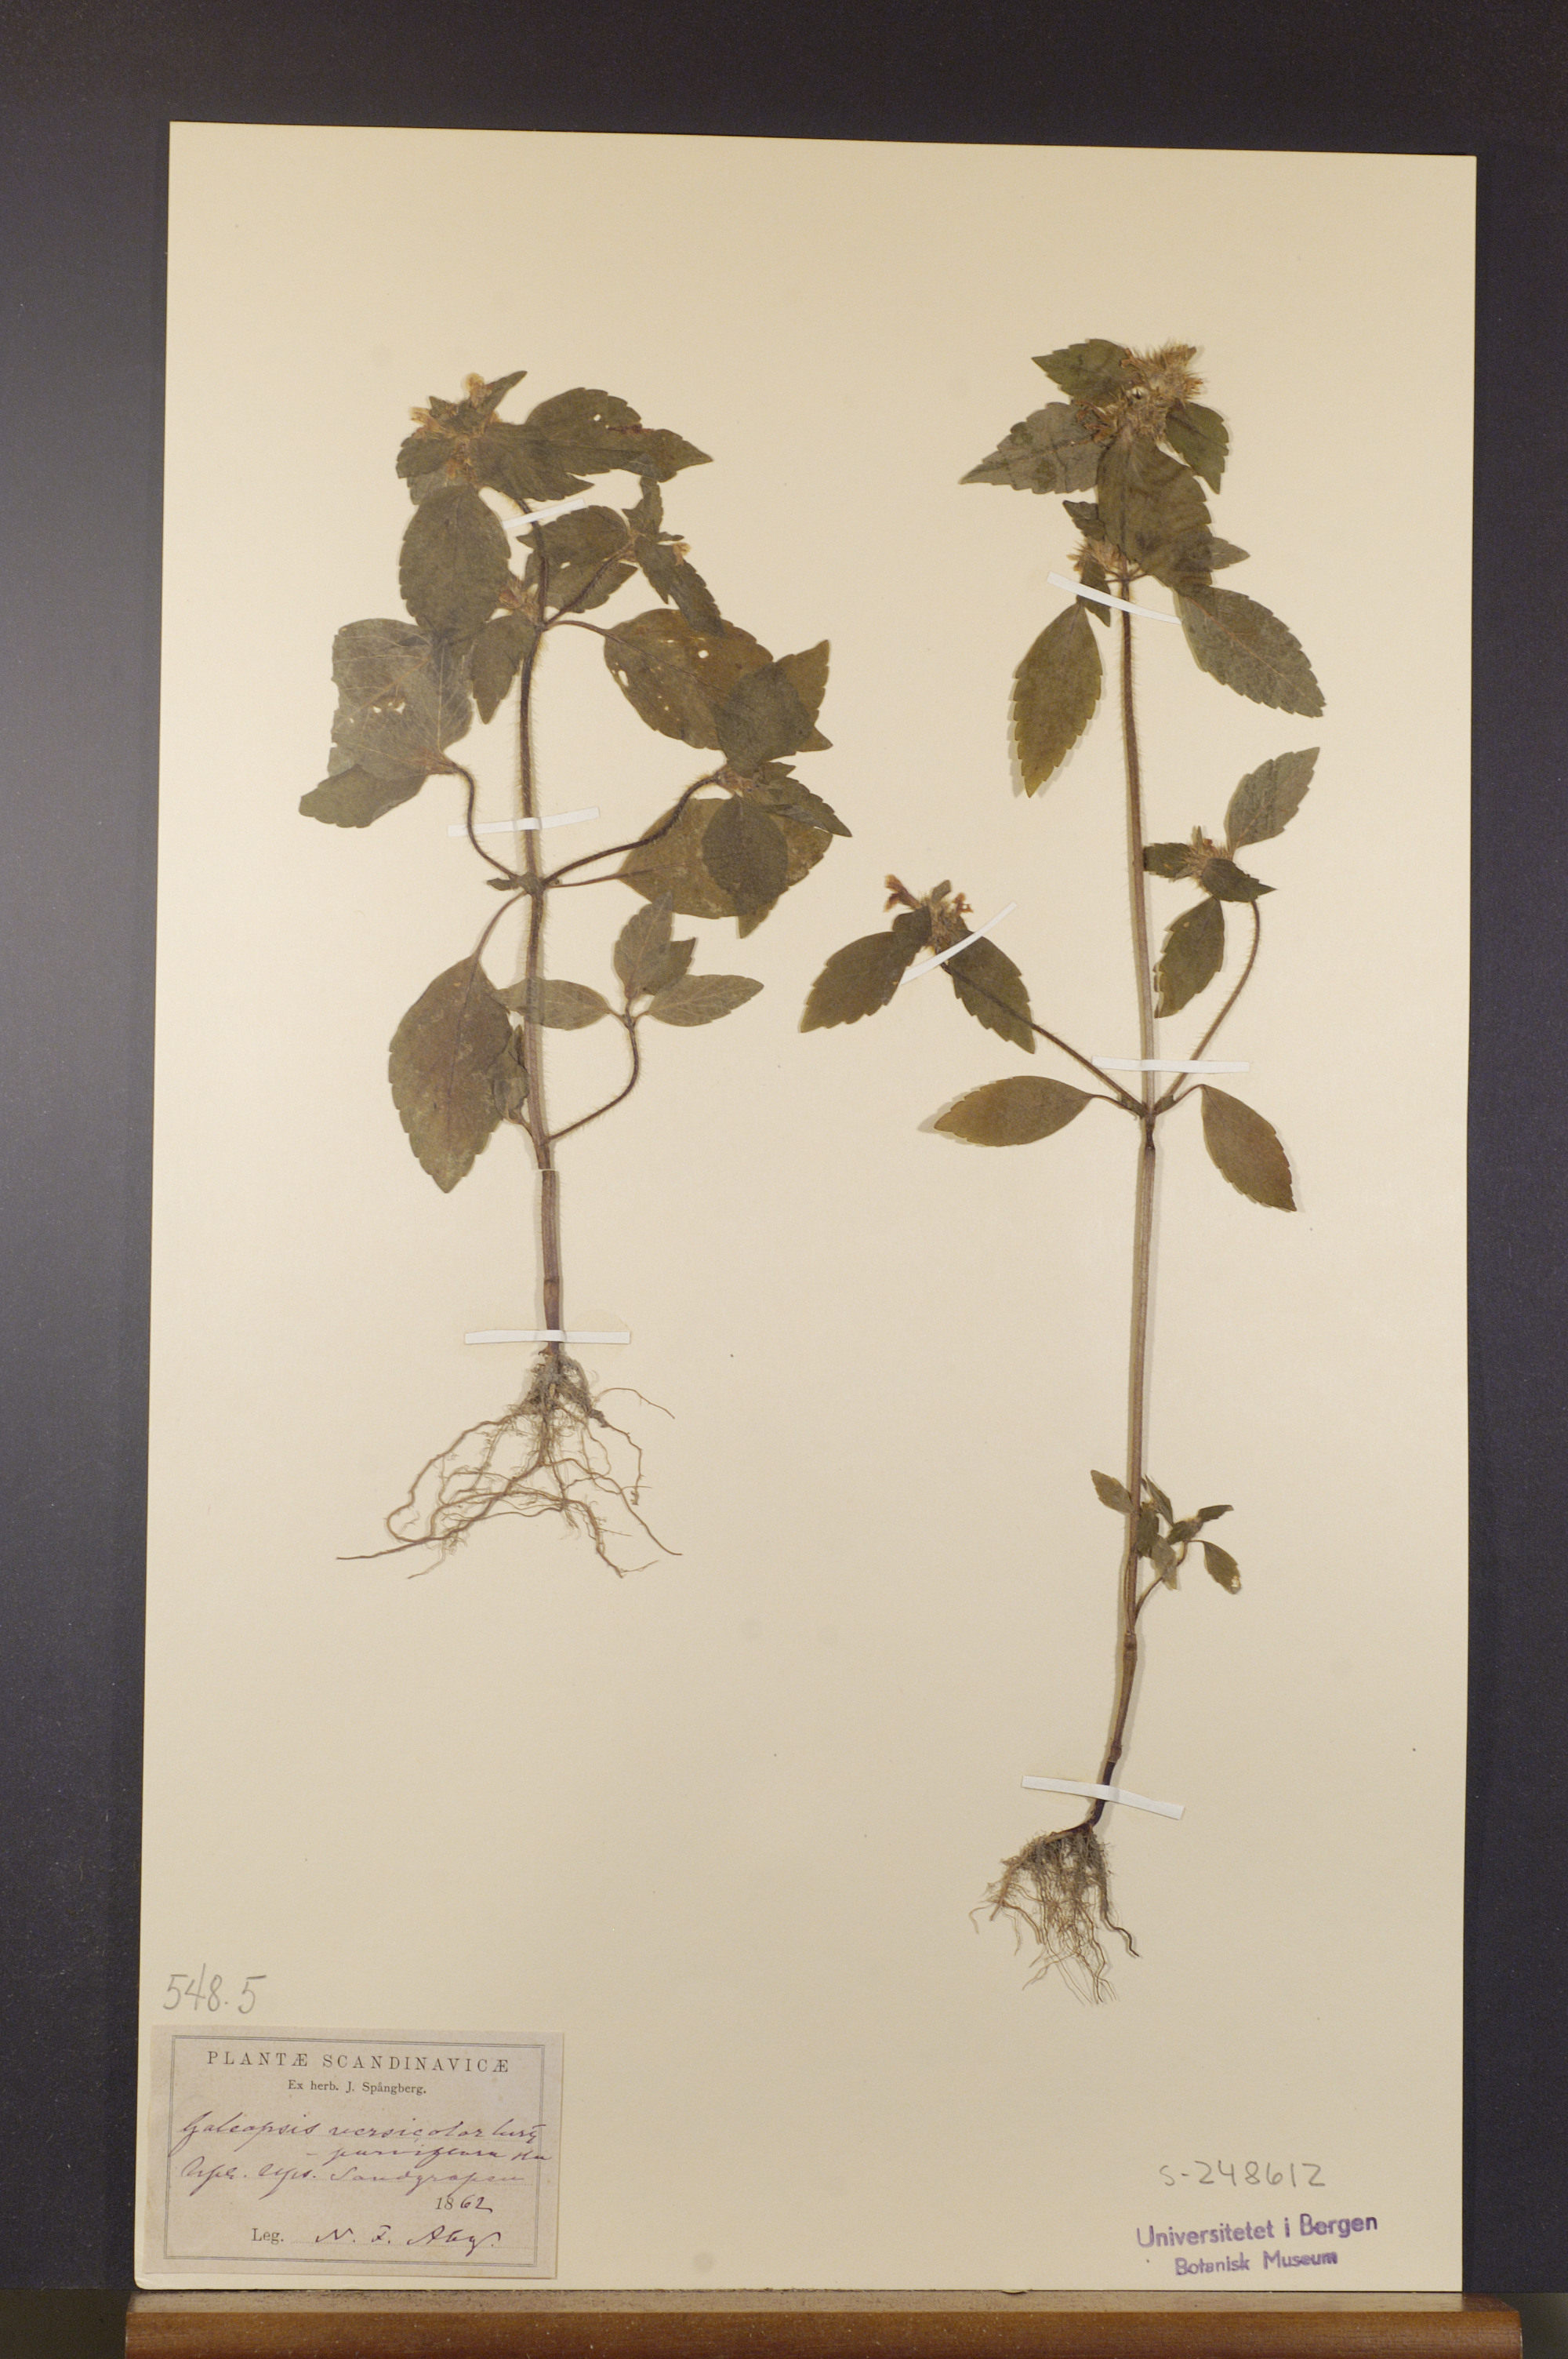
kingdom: Plantae
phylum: Tracheophyta
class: Magnoliopsida
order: Lamiales
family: Lamiaceae
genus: Galeopsis
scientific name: Galeopsis speciosa
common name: Large-flowered hemp-nettle
